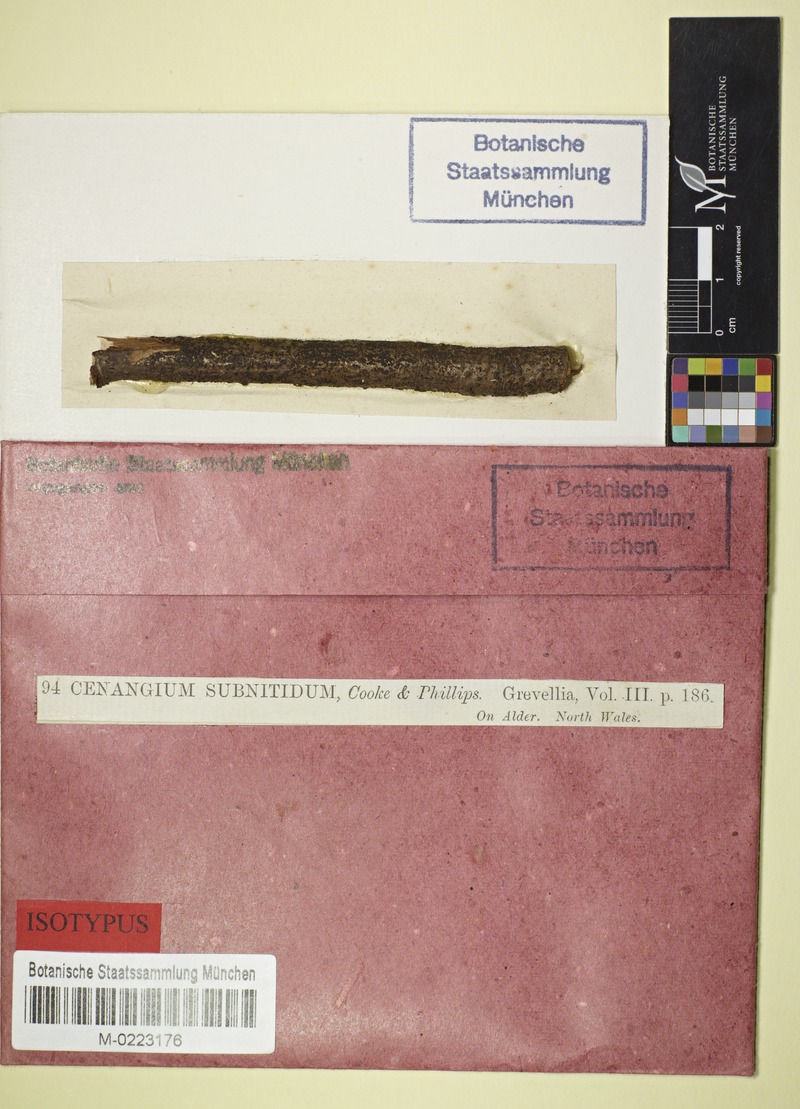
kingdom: Fungi
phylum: Ascomycota
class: Leotiomycetes
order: Helotiales
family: Dermateaceae
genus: Dermea
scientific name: Dermea ariae
